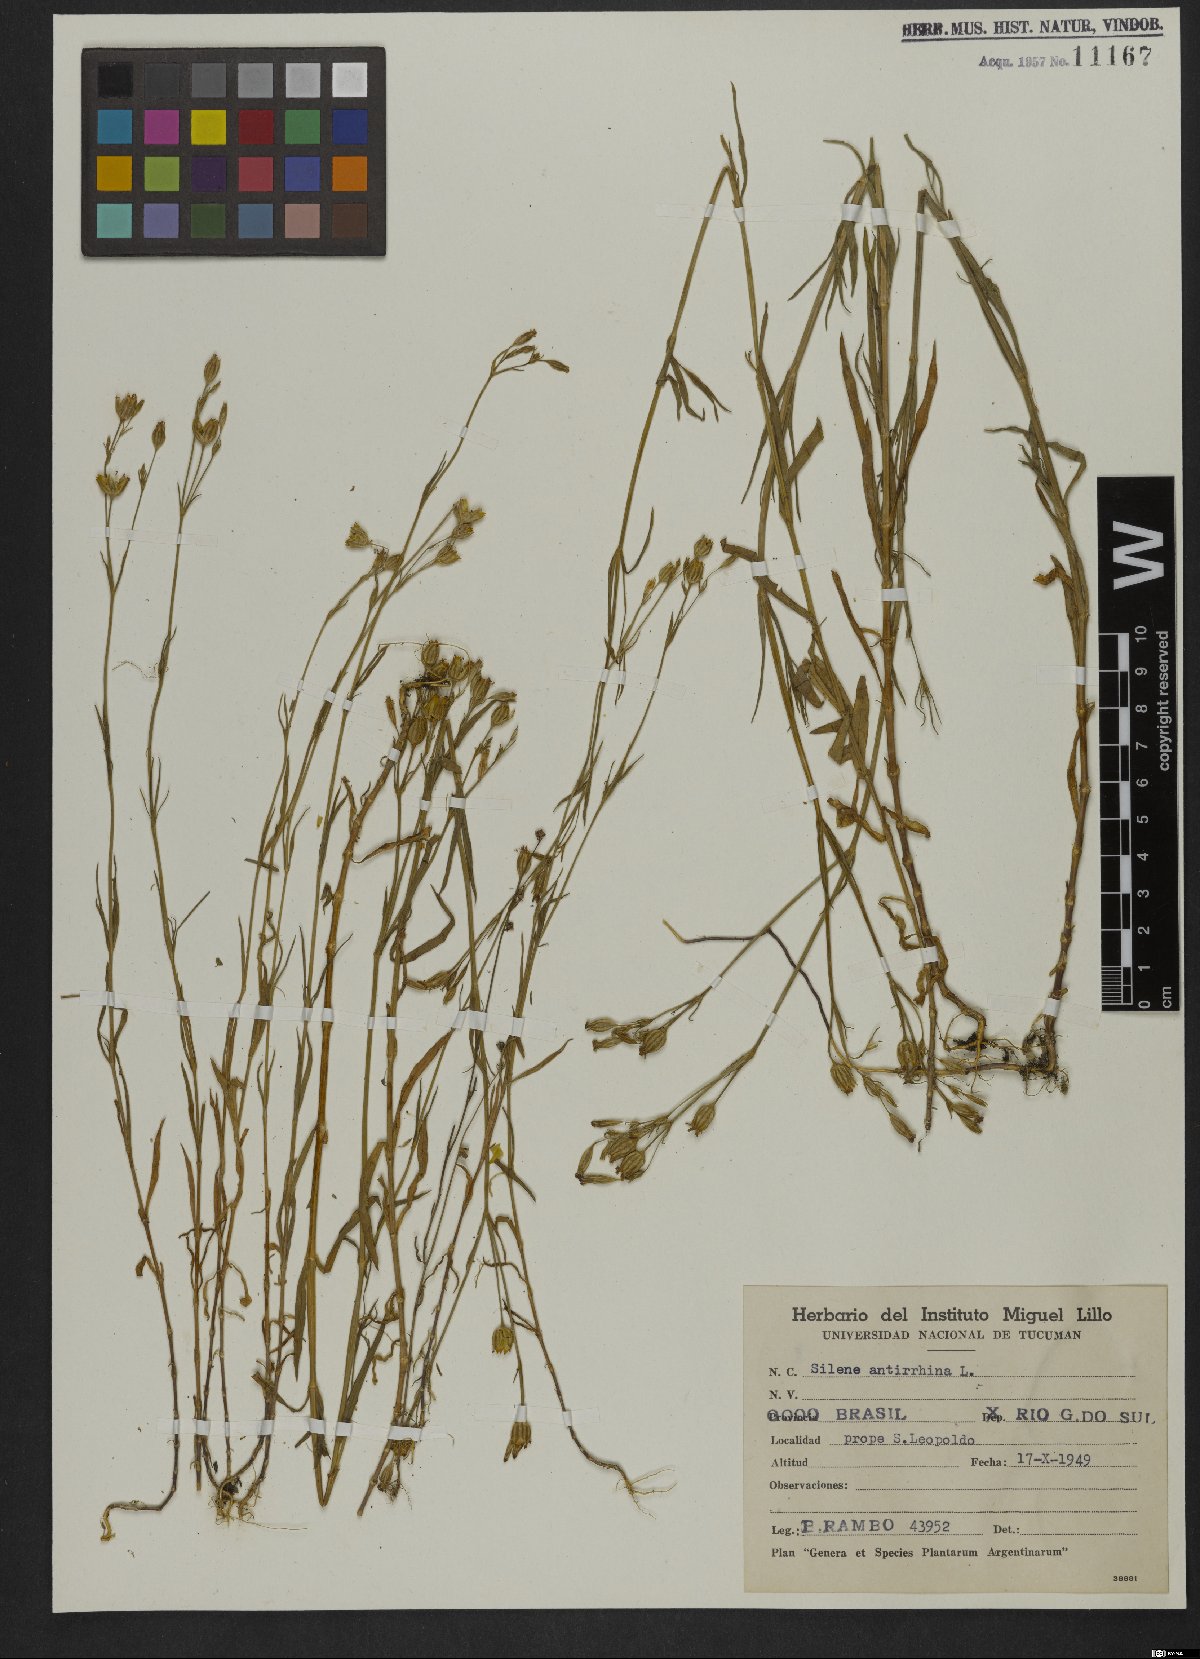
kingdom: Plantae
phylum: Tracheophyta
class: Magnoliopsida
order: Caryophyllales
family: Caryophyllaceae
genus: Silene
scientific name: Silene antirrhina
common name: Sleepy catchfly
